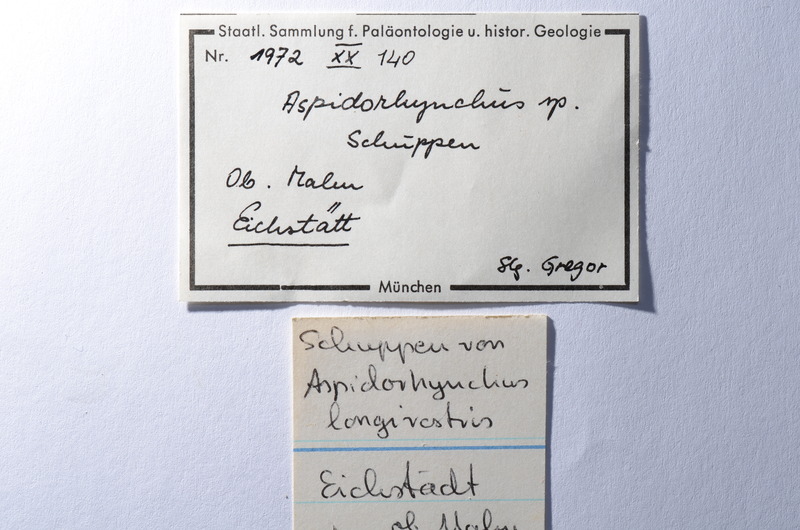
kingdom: Animalia
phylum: Chordata
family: Aspidorhynchidae
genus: Aspidorhynchus
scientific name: Aspidorhynchus
